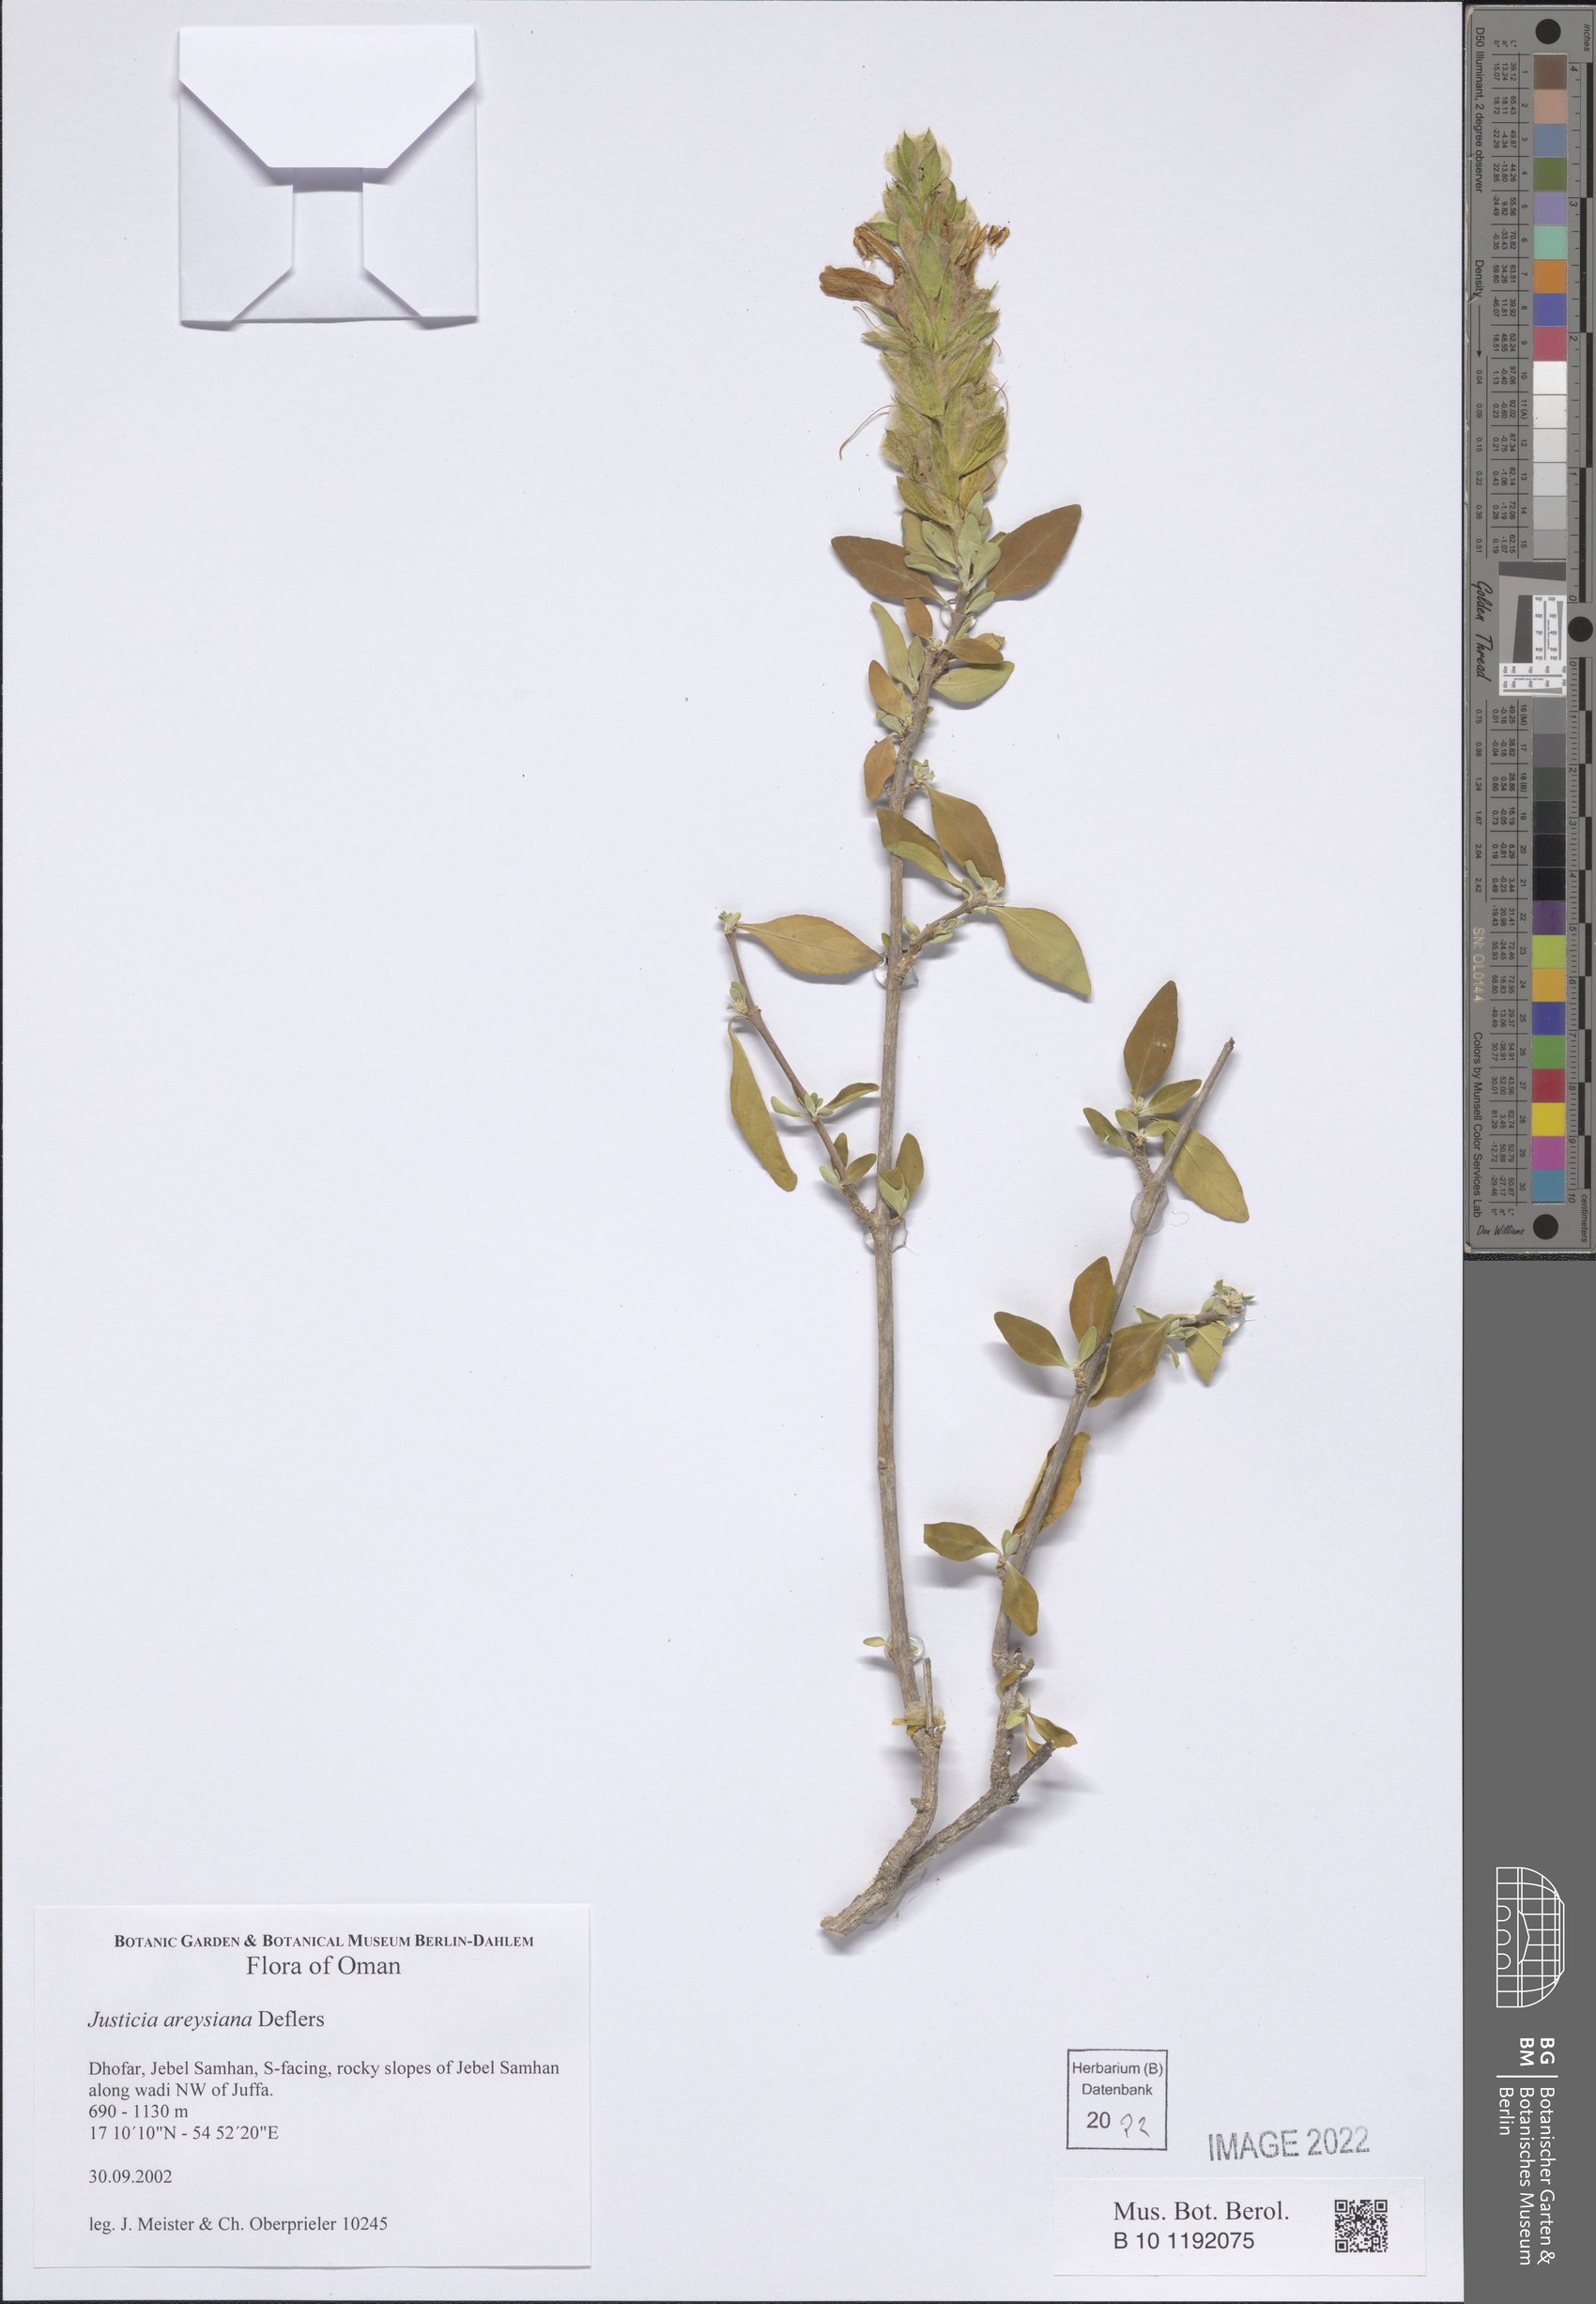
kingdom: Plantae
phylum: Tracheophyta
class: Magnoliopsida
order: Lamiales
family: Acanthaceae
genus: Justicia
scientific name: Justicia areysiana
